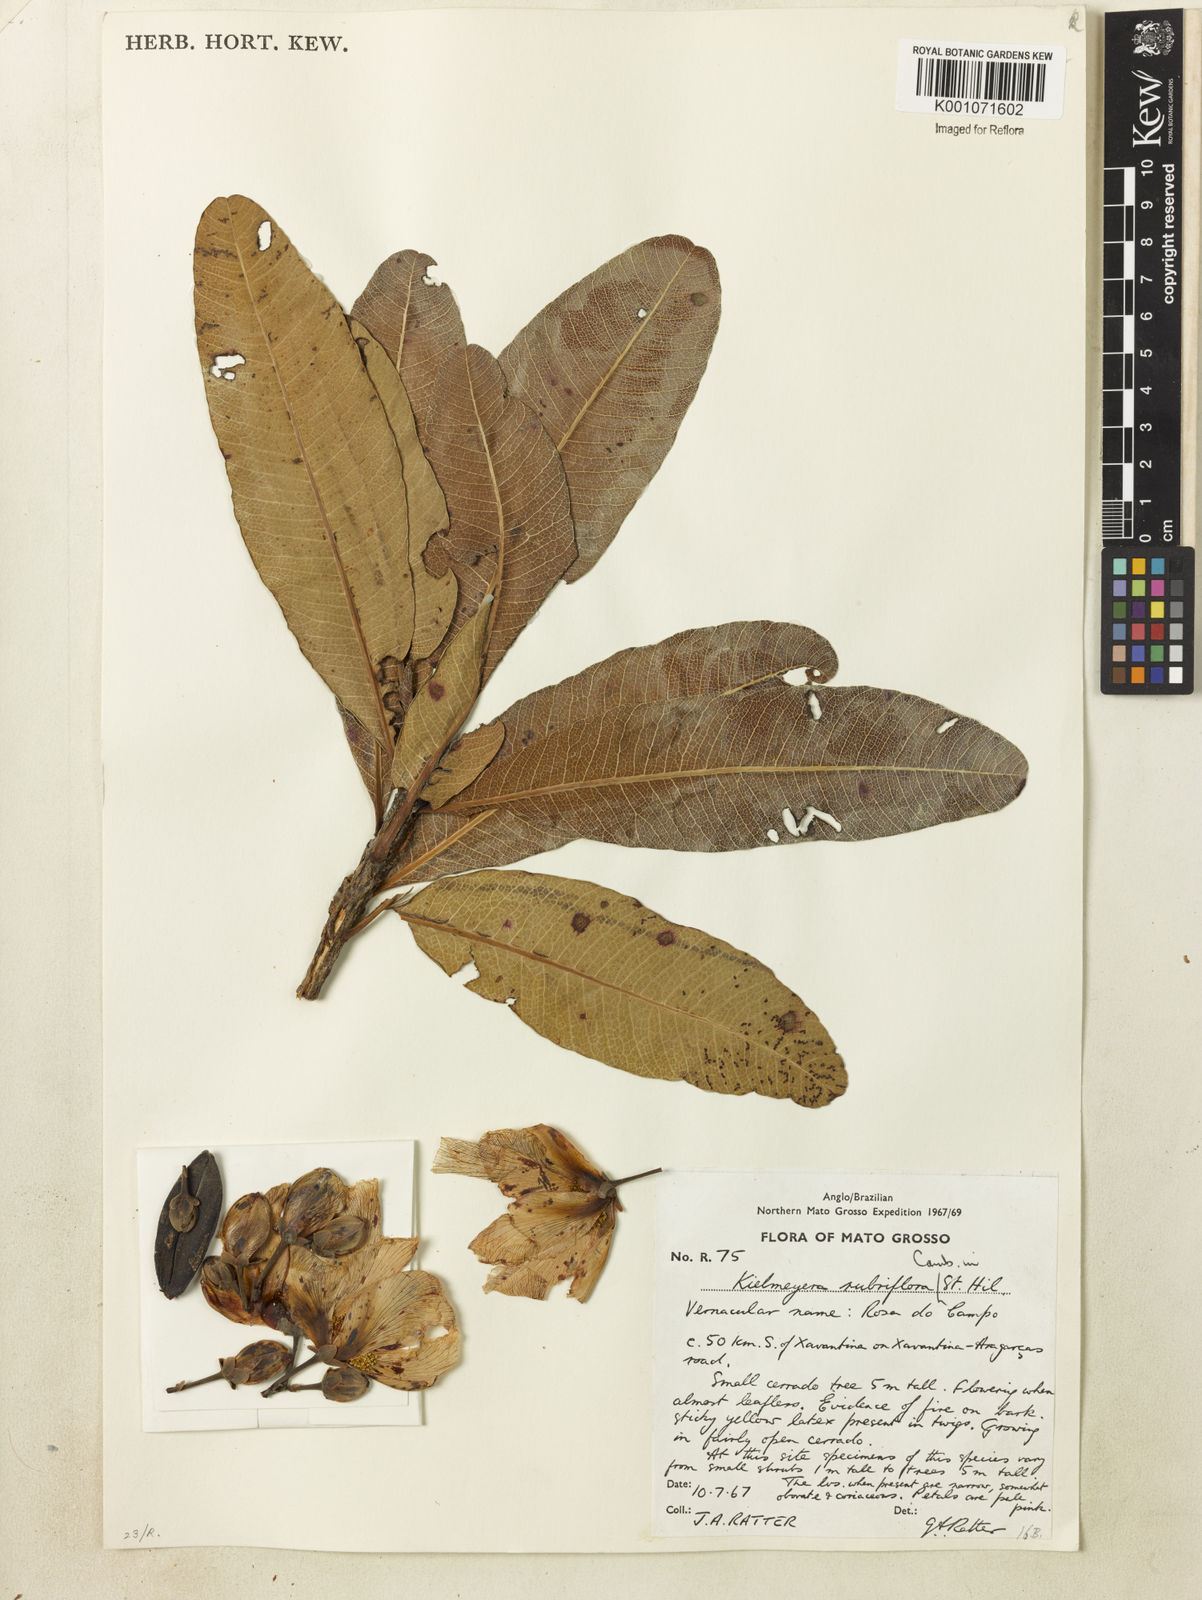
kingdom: Plantae
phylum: Tracheophyta
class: Magnoliopsida
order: Malpighiales
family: Calophyllaceae
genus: Kielmeyera
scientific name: Kielmeyera rubriflora
